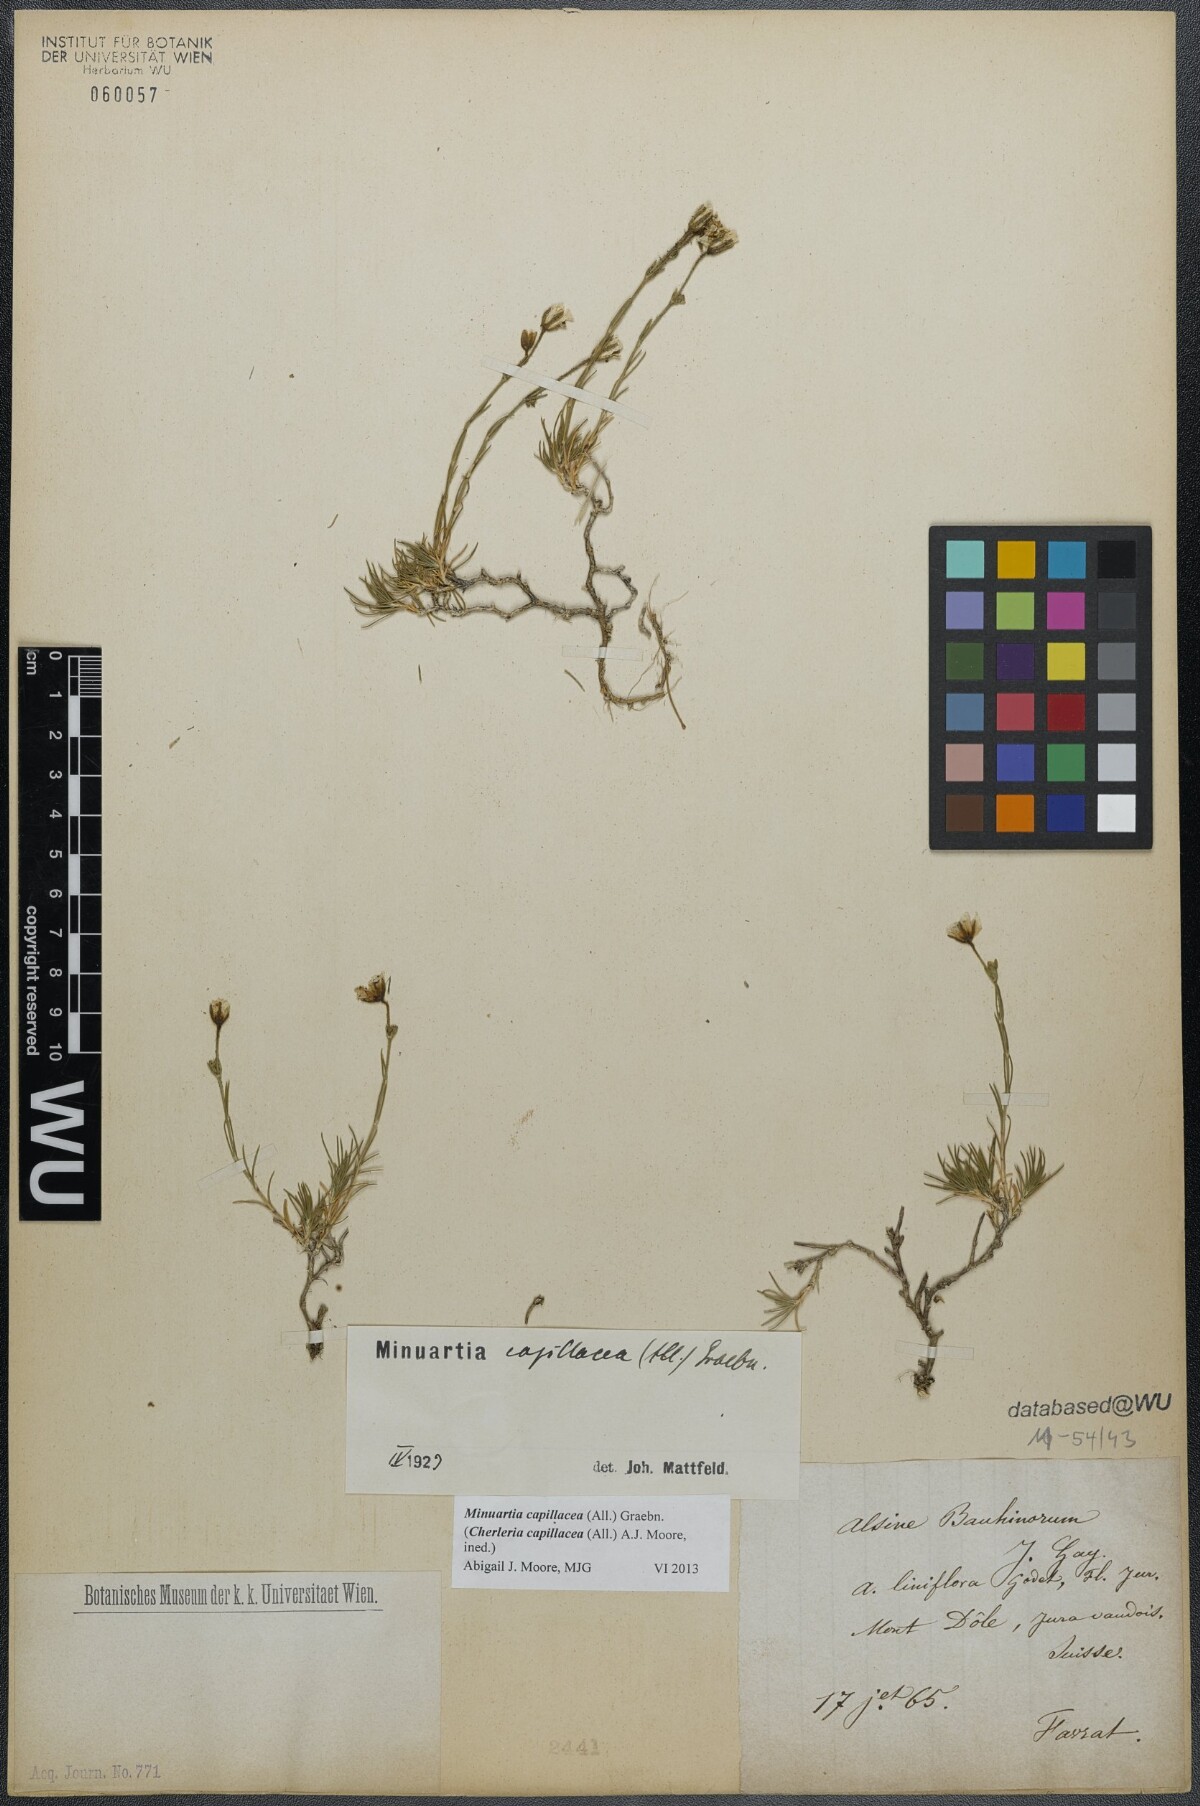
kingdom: Plantae
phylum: Tracheophyta
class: Magnoliopsida
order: Caryophyllales
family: Caryophyllaceae
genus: Cherleria
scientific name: Cherleria capillacea
